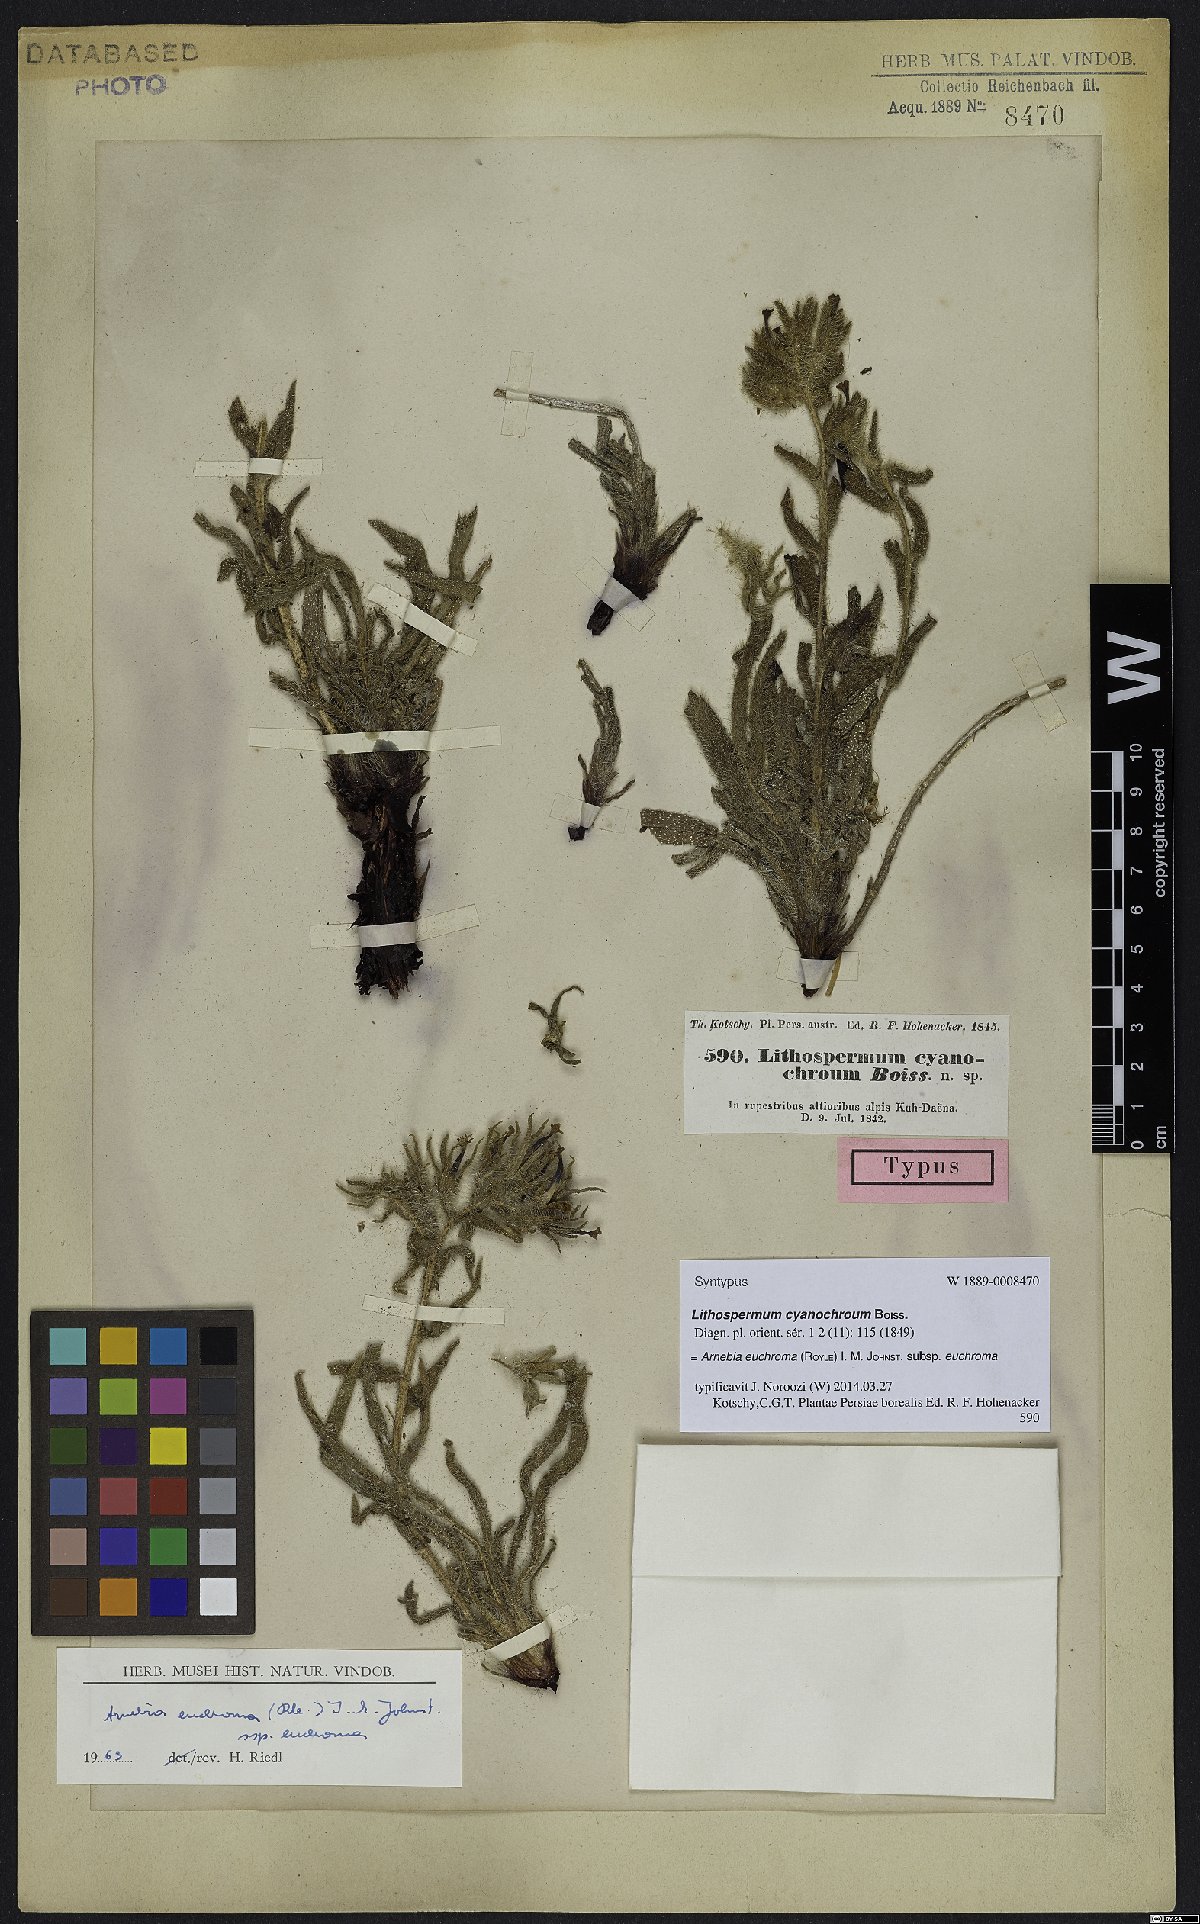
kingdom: Plantae
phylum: Tracheophyta
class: Magnoliopsida
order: Boraginales
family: Boraginaceae
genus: Arnebia
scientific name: Arnebia euchroma
